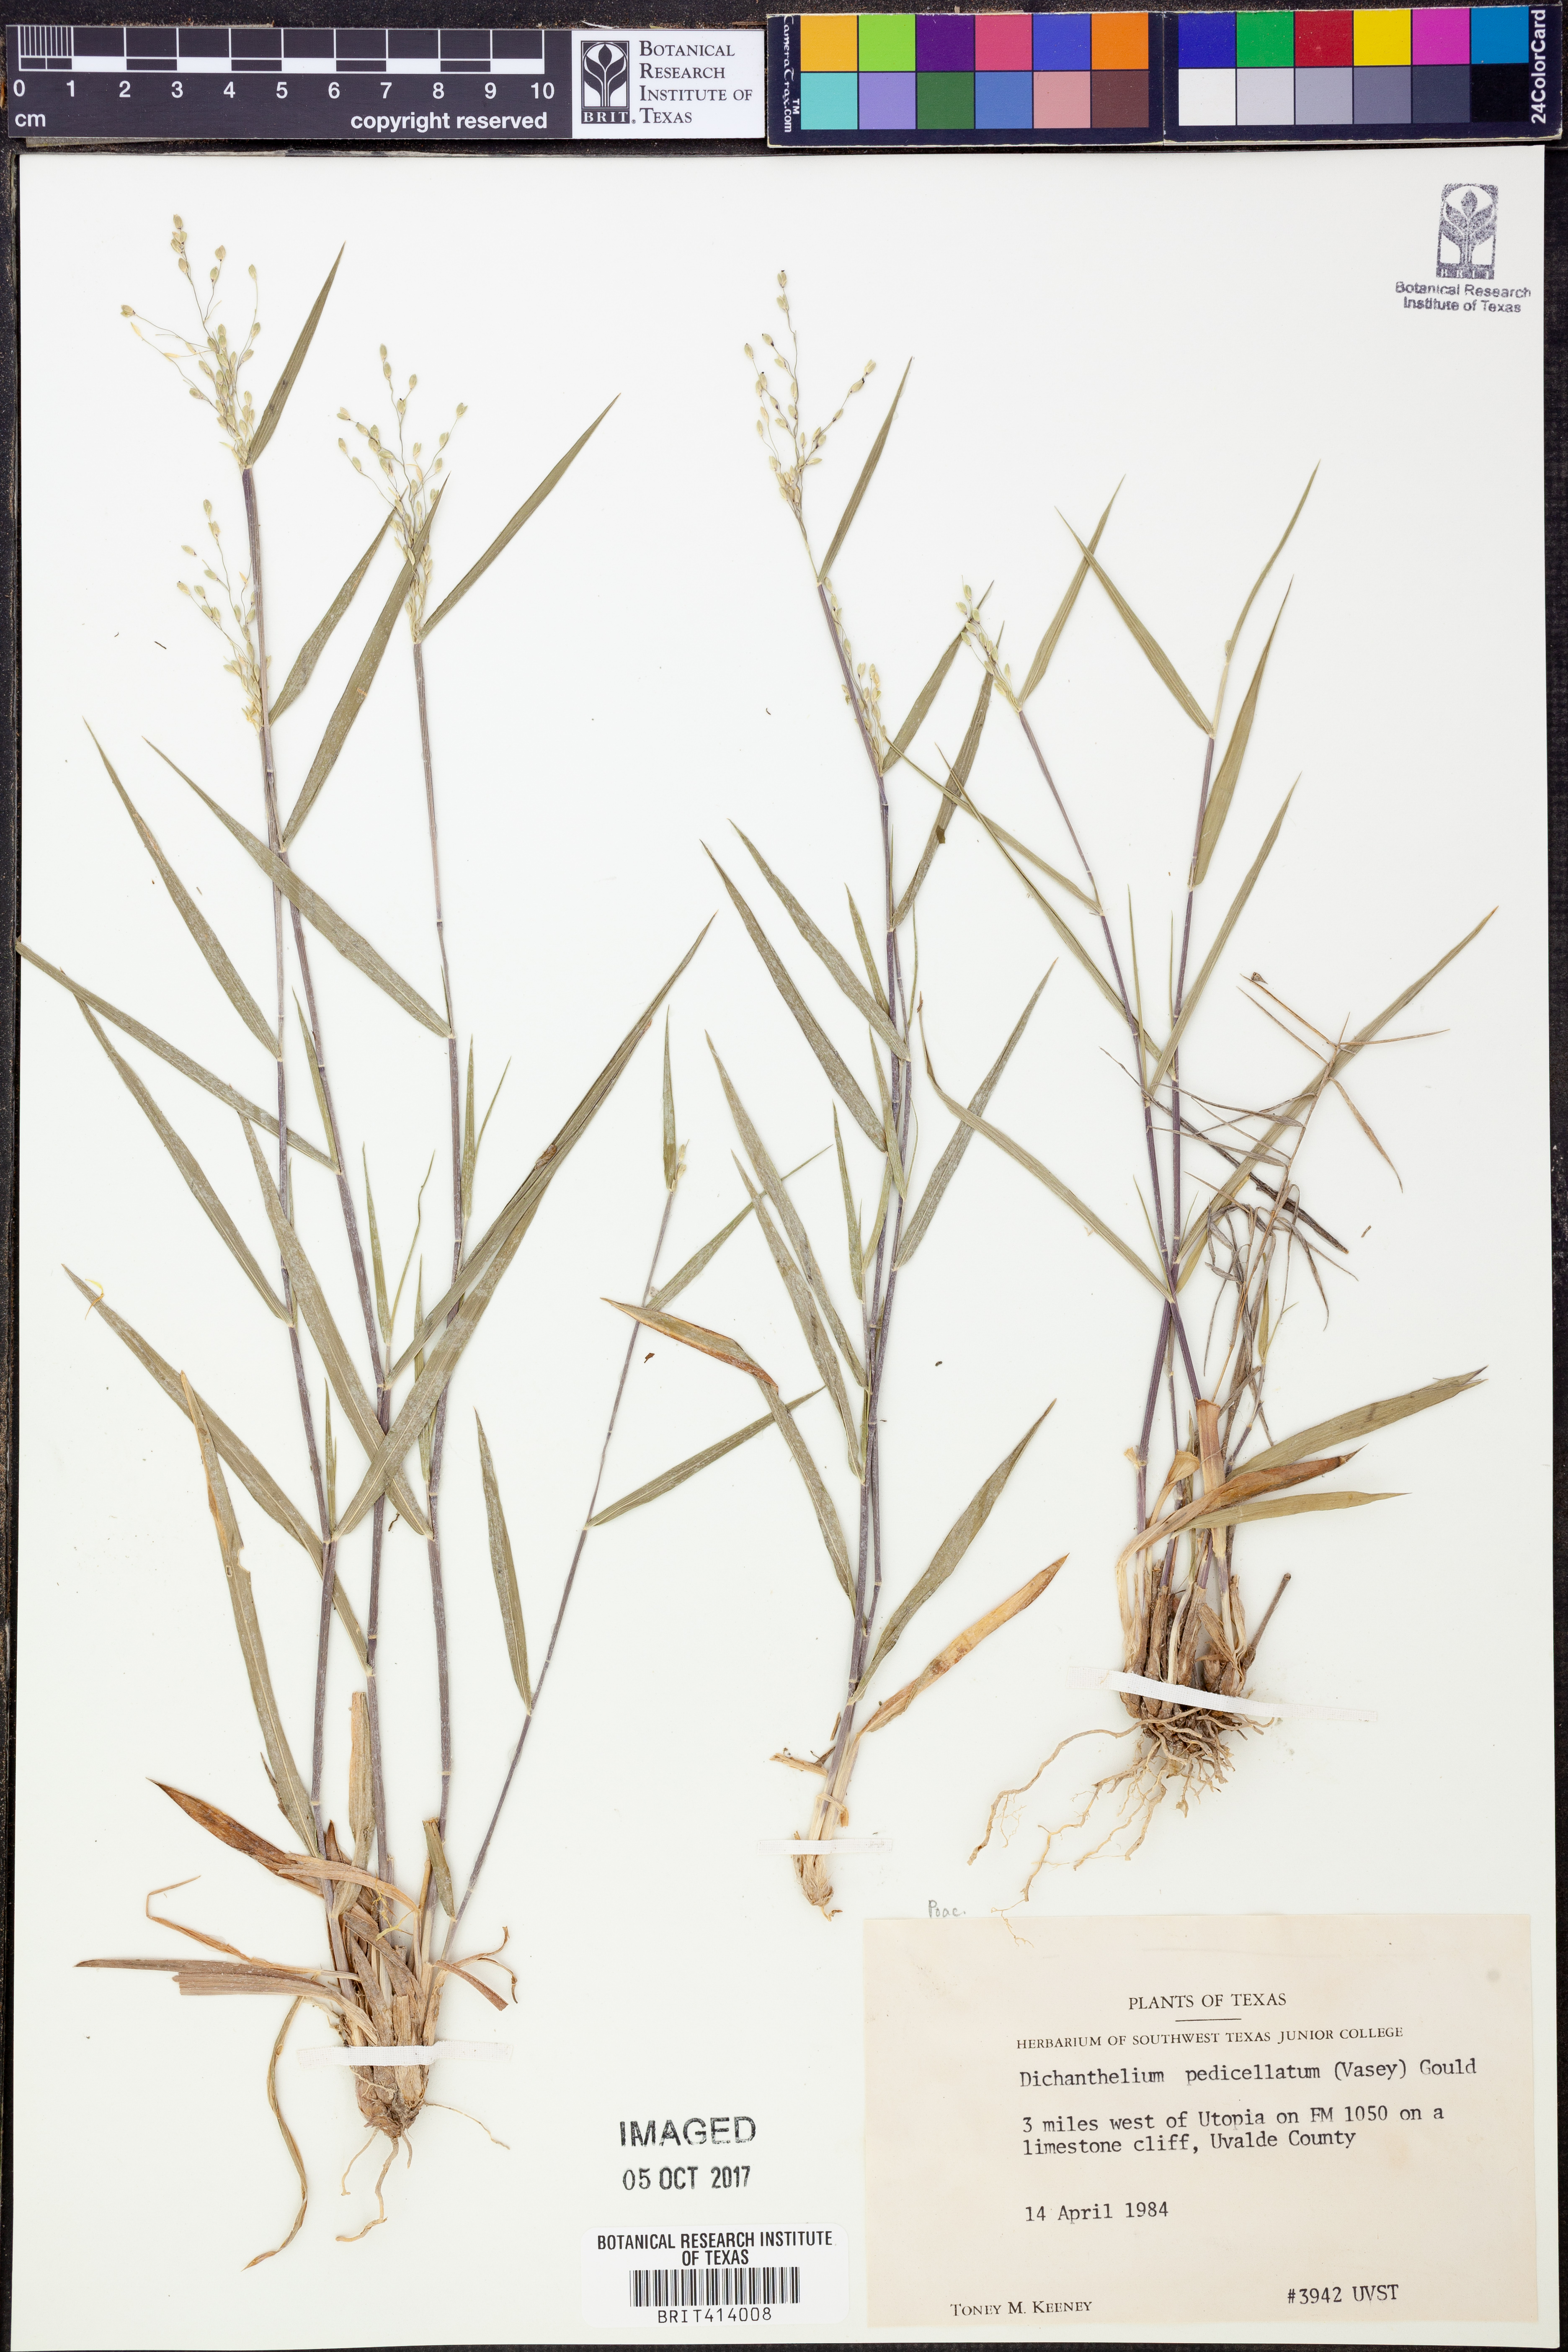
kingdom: Plantae
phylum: Tracheophyta
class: Liliopsida
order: Poales
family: Poaceae
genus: Dichanthelium
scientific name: Dichanthelium transiens
